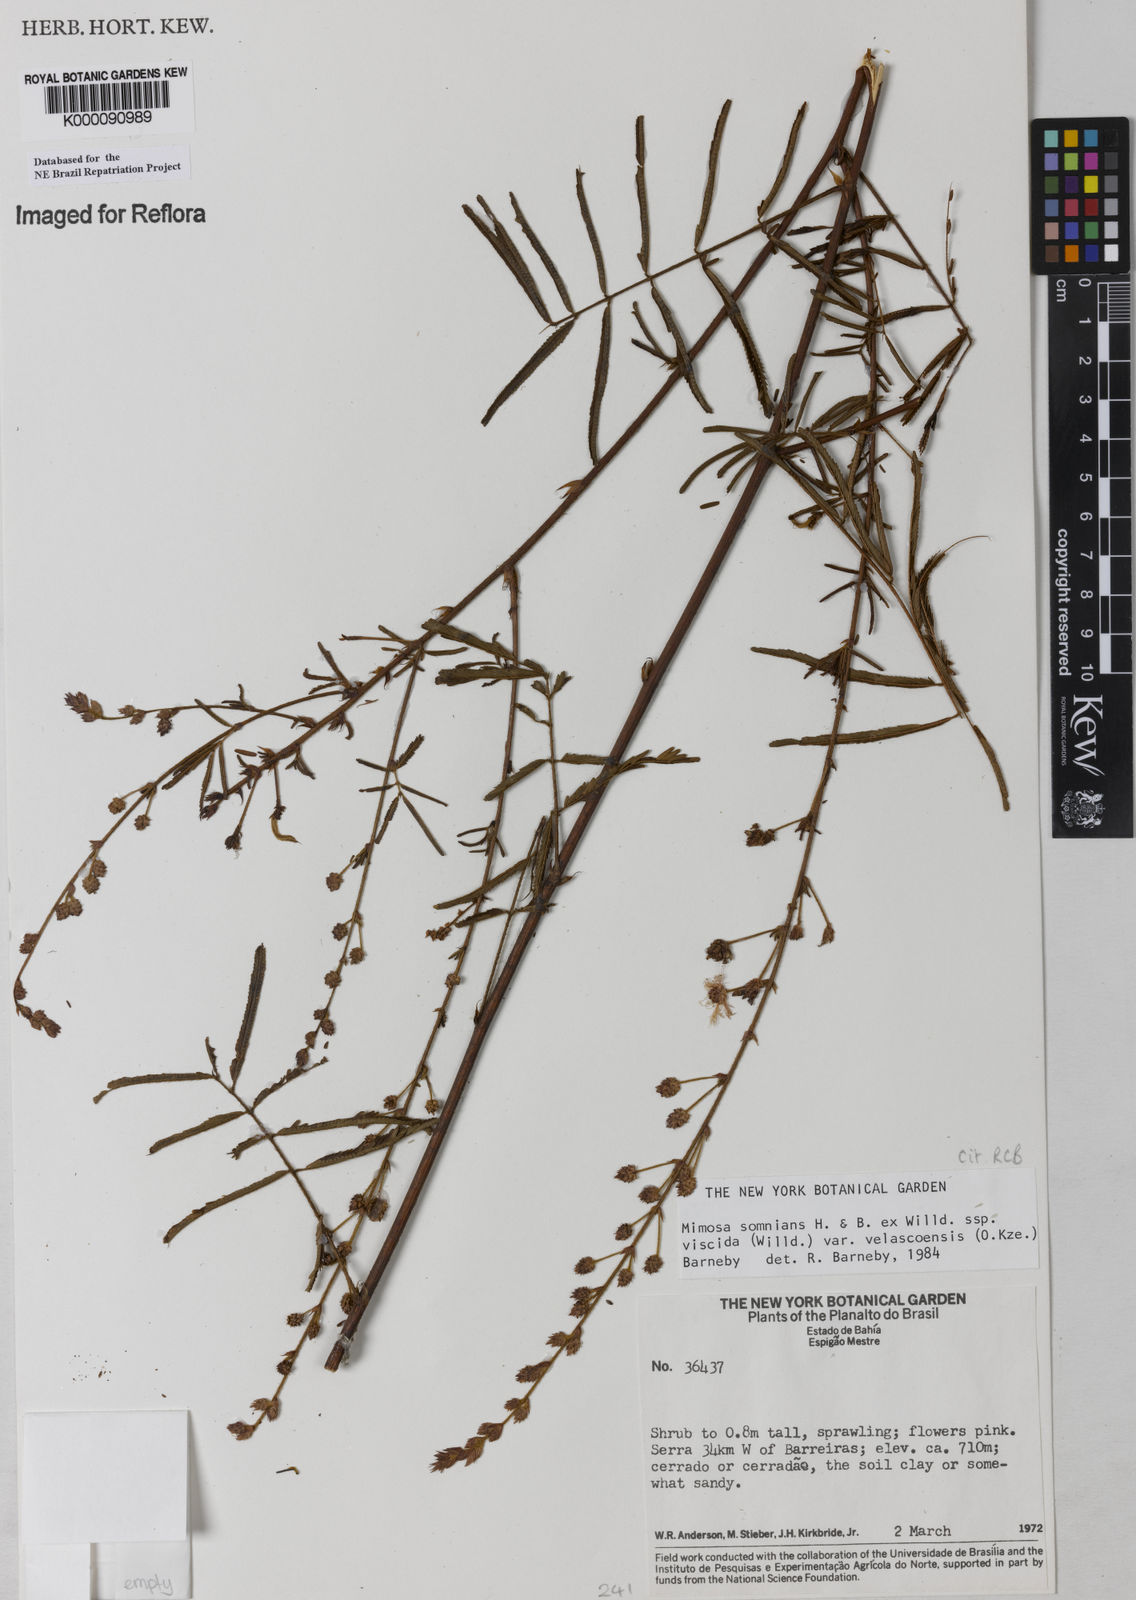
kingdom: Plantae
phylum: Tracheophyta
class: Magnoliopsida
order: Fabales
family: Fabaceae
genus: Mimosa
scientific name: Mimosa somnians
